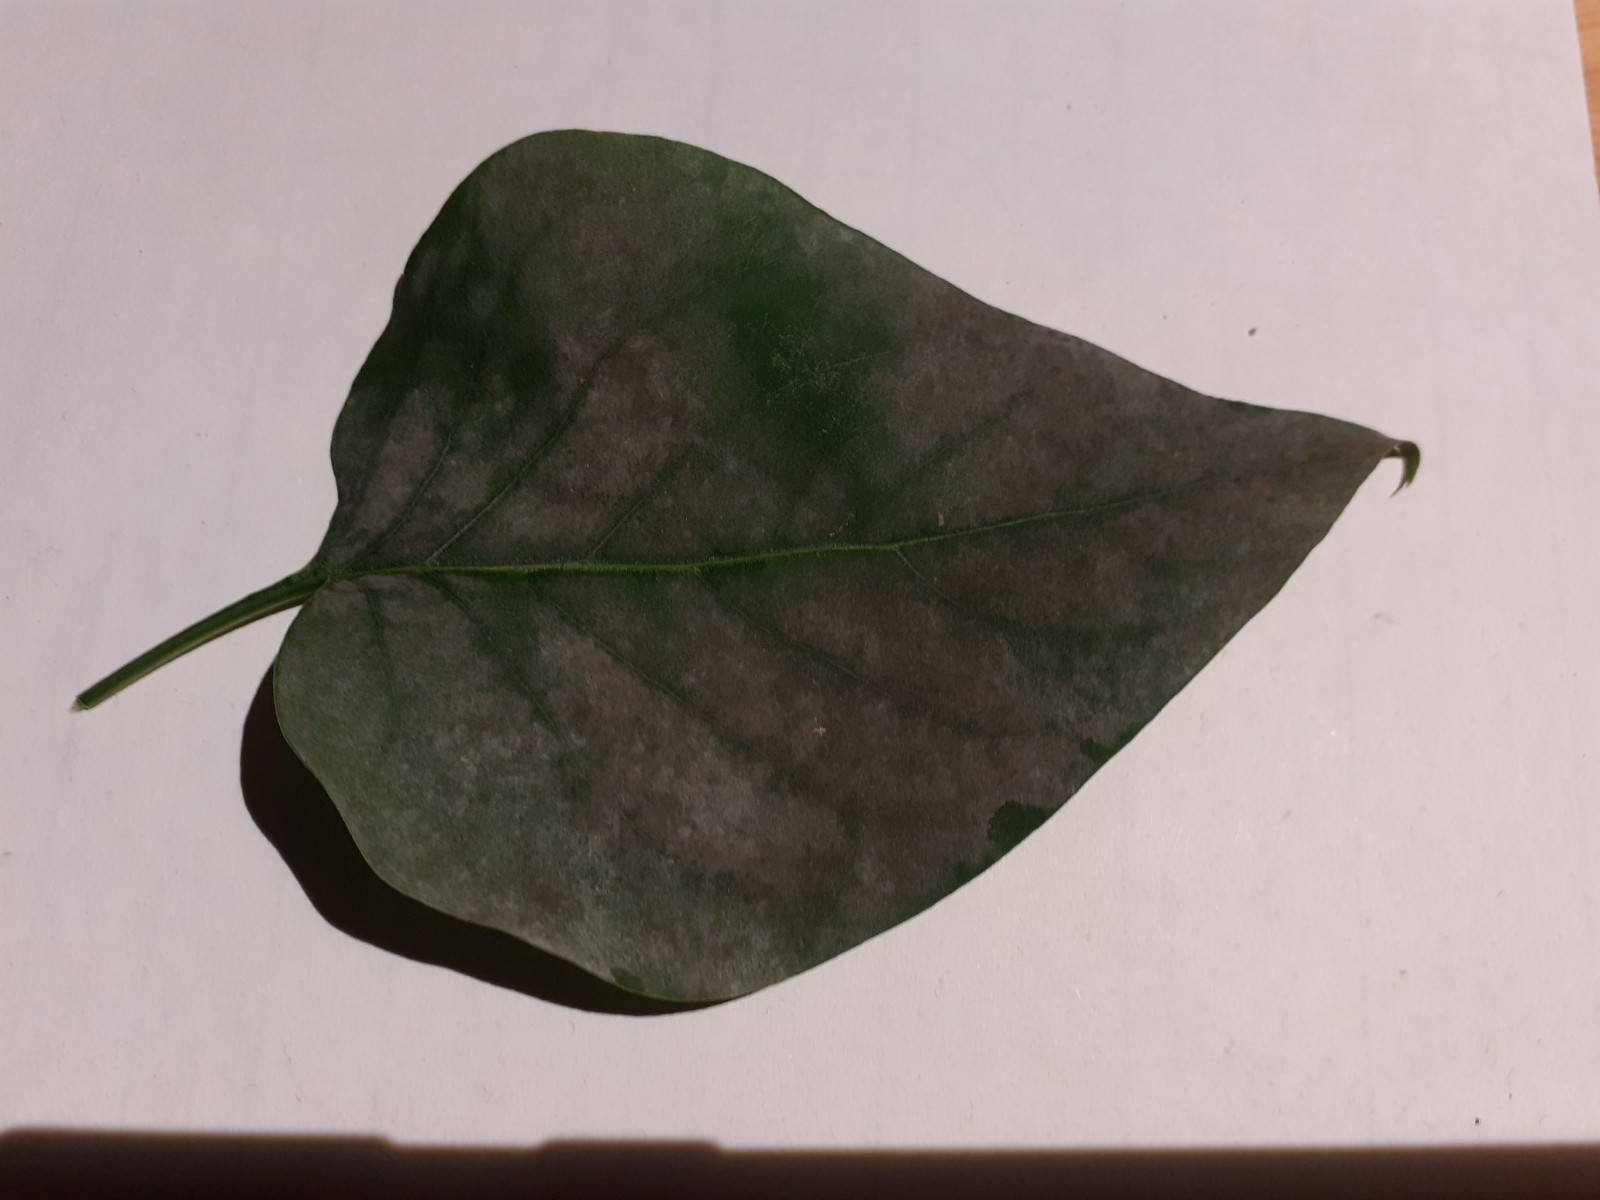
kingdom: Fungi
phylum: Ascomycota
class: Leotiomycetes
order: Helotiales
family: Erysiphaceae
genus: Erysiphe
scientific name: Erysiphe syringae-japonicae
